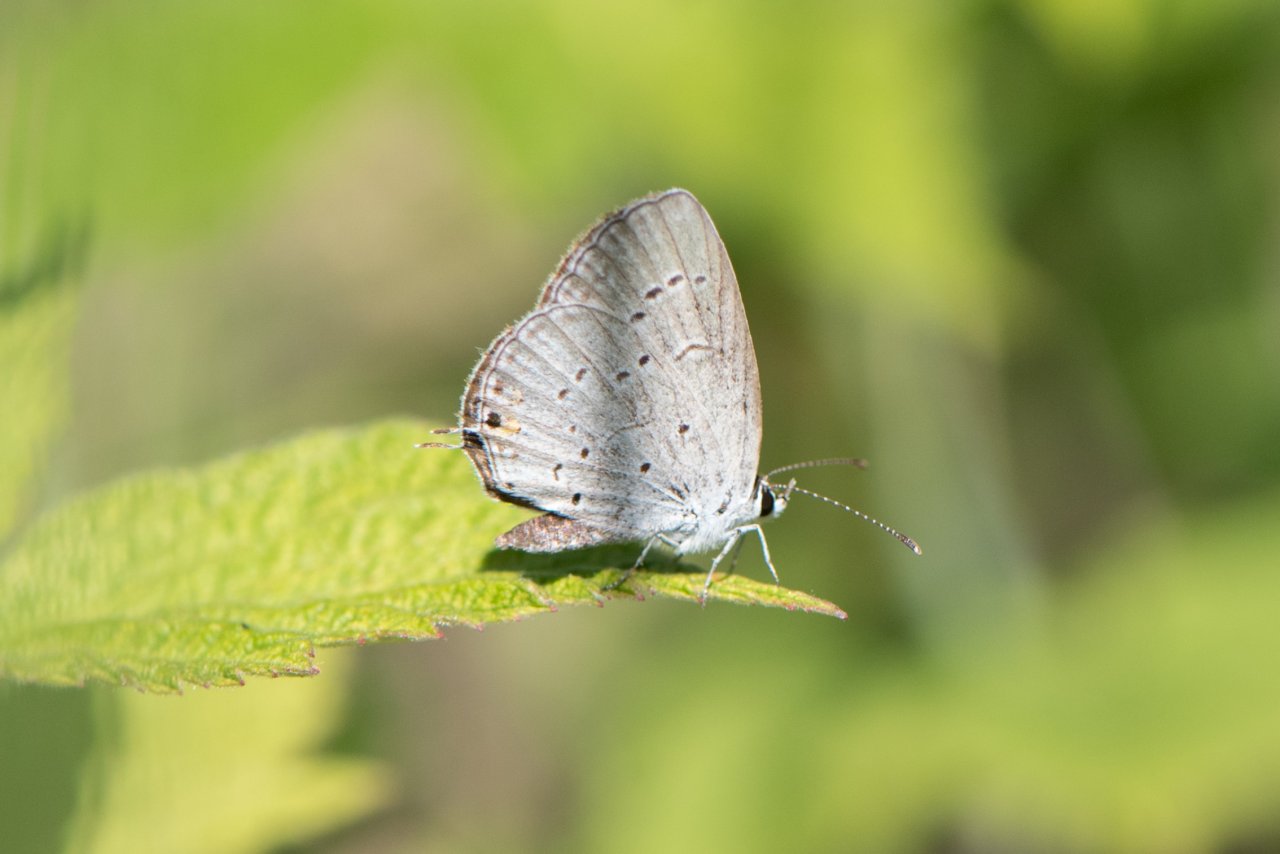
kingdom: Animalia
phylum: Arthropoda
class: Insecta
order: Lepidoptera
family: Lycaenidae
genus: Elkalyce
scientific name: Elkalyce comyntas
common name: Eastern Tailed-Blue
